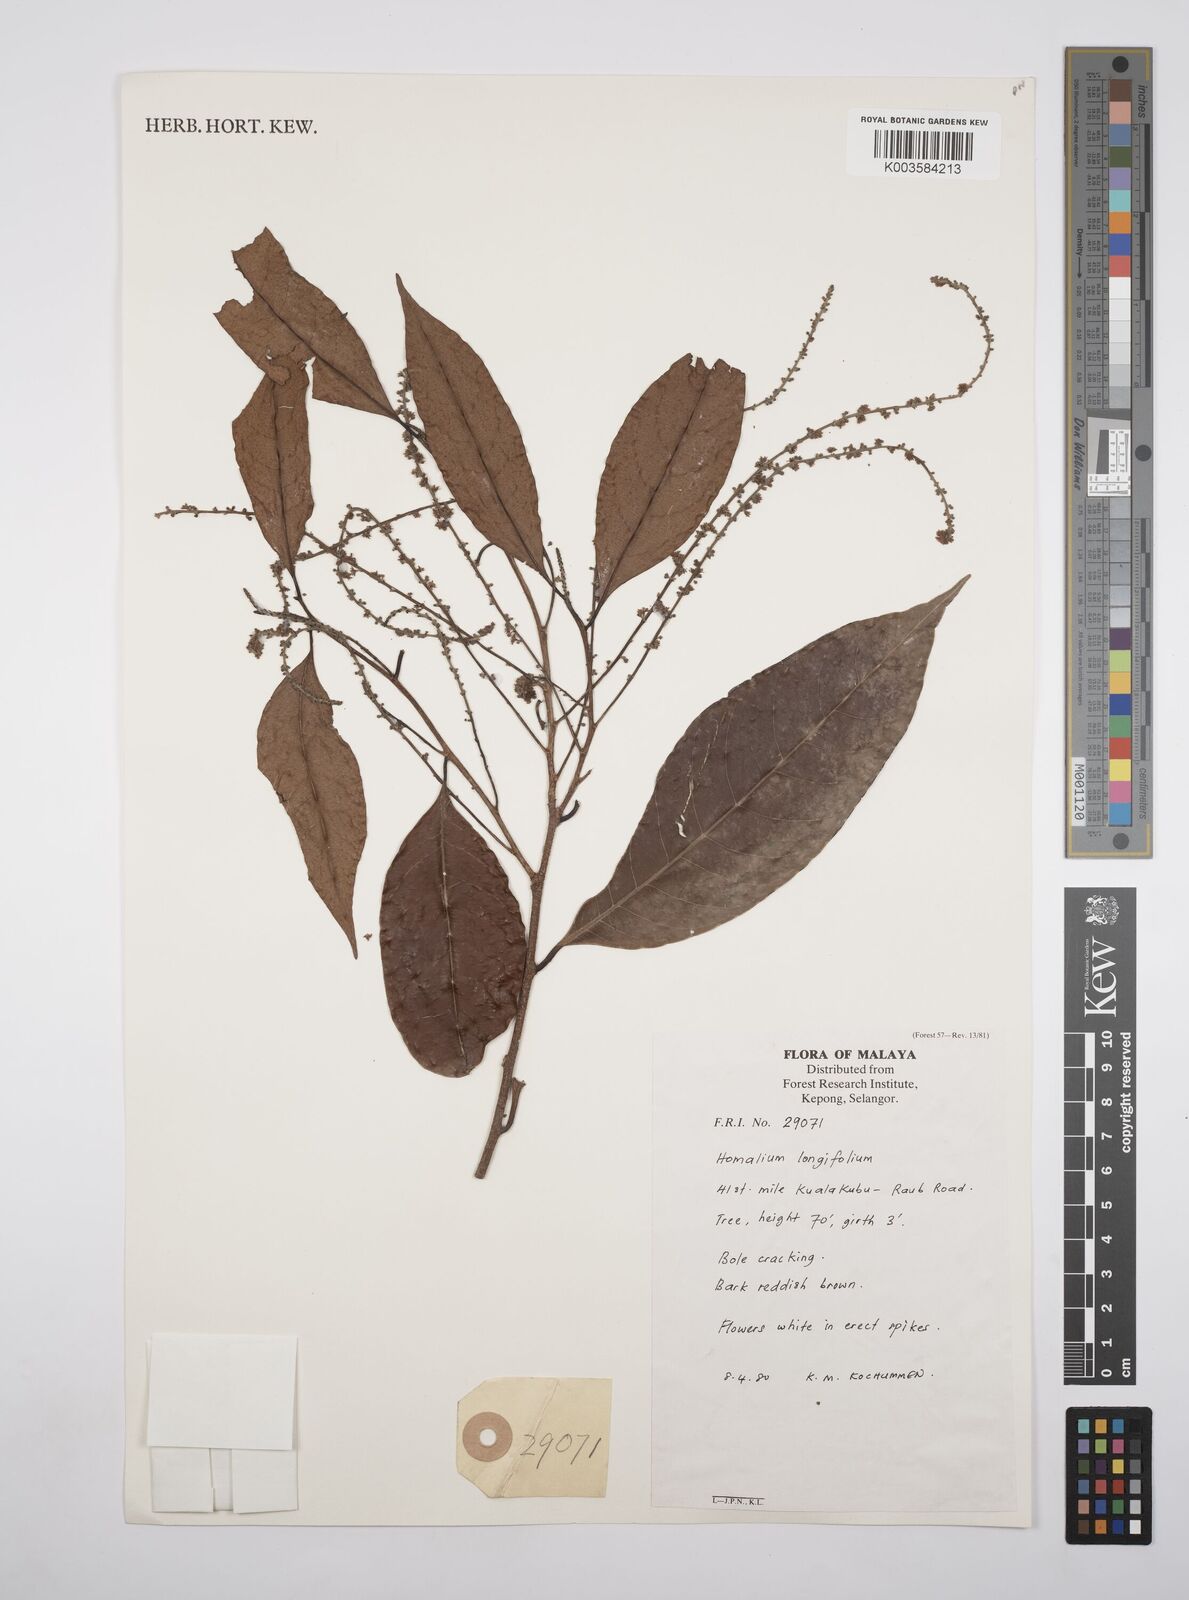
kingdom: Plantae
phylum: Tracheophyta
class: Magnoliopsida
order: Malpighiales
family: Salicaceae
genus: Homalium
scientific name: Homalium longifolium
